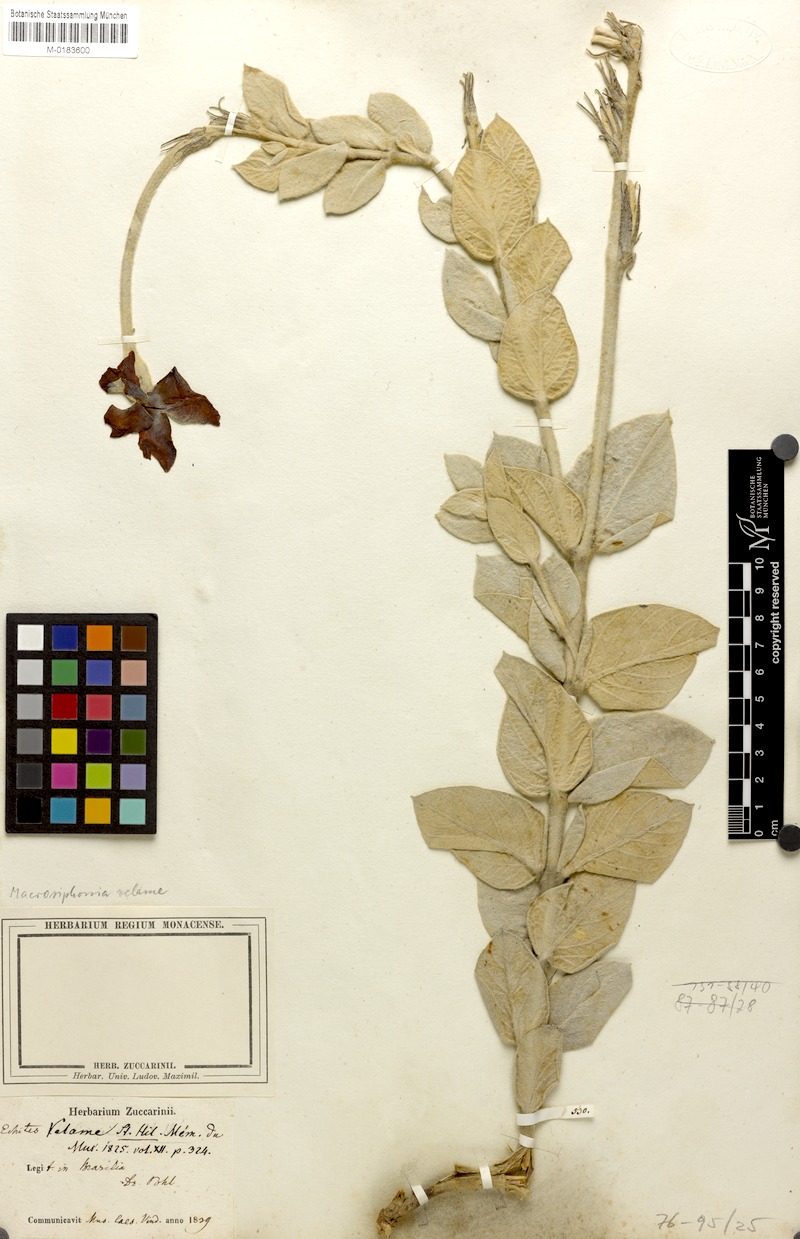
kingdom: Plantae
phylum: Tracheophyta
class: Magnoliopsida
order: Gentianales
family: Apocynaceae
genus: Mandevilla
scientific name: Mandevilla velame
